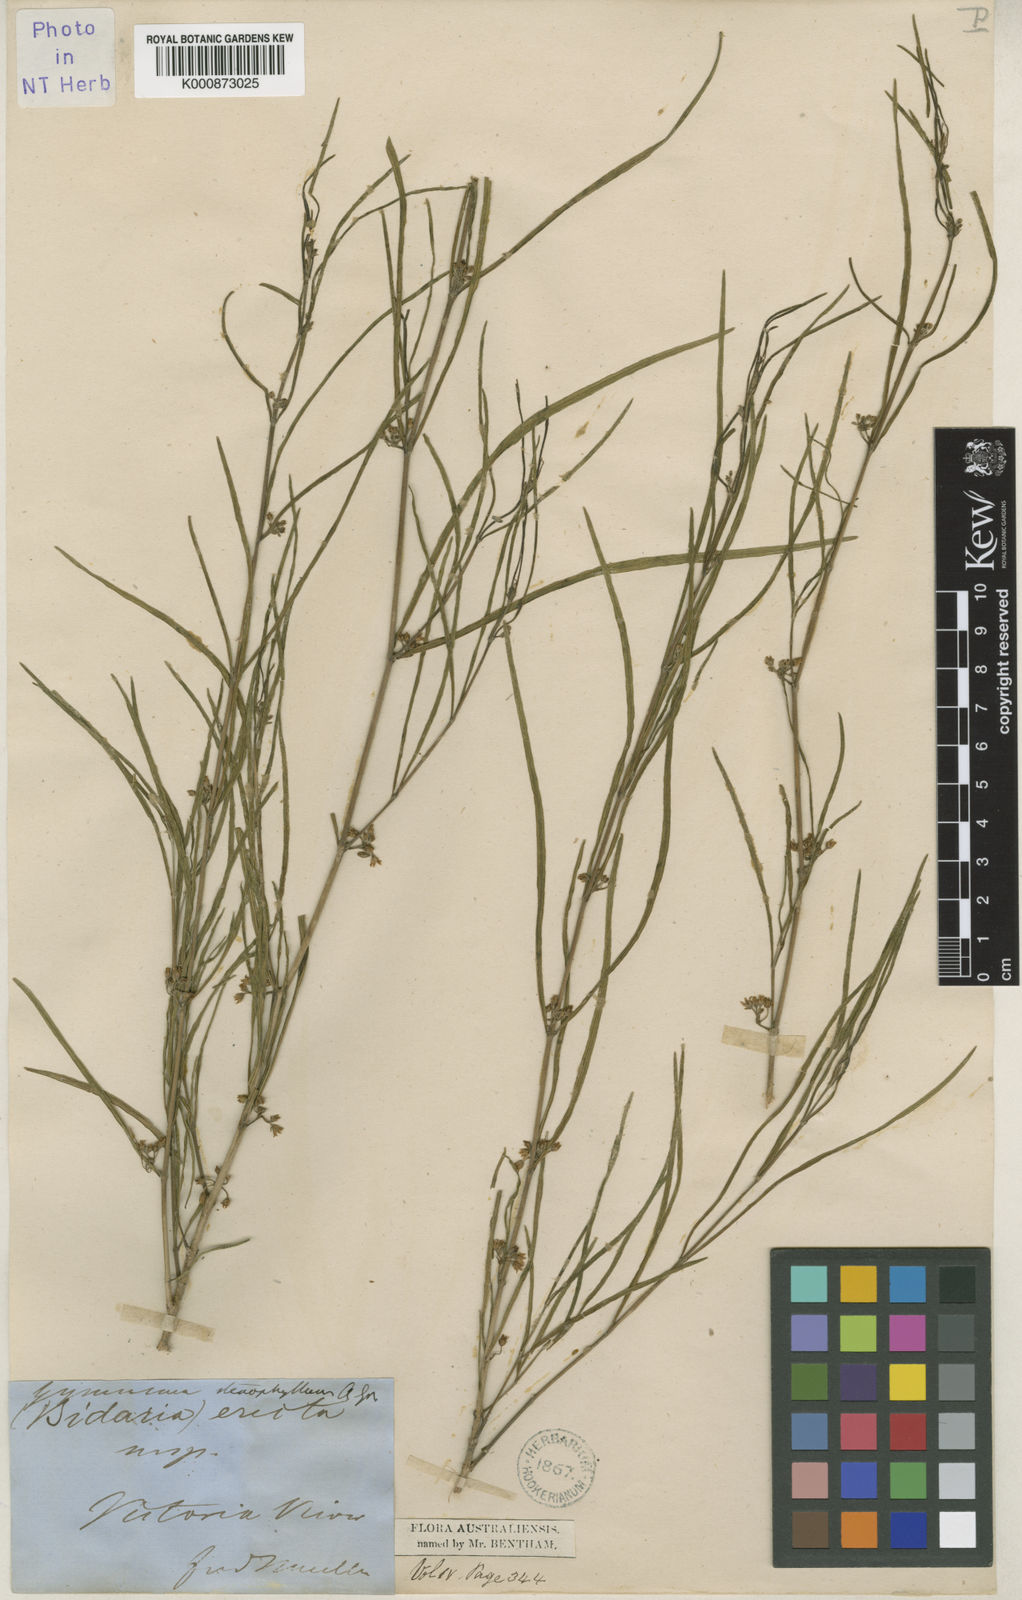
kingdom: Plantae
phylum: Tracheophyta
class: Magnoliopsida
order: Gentianales
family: Apocynaceae
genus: Gymnema
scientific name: Gymnema erectum
